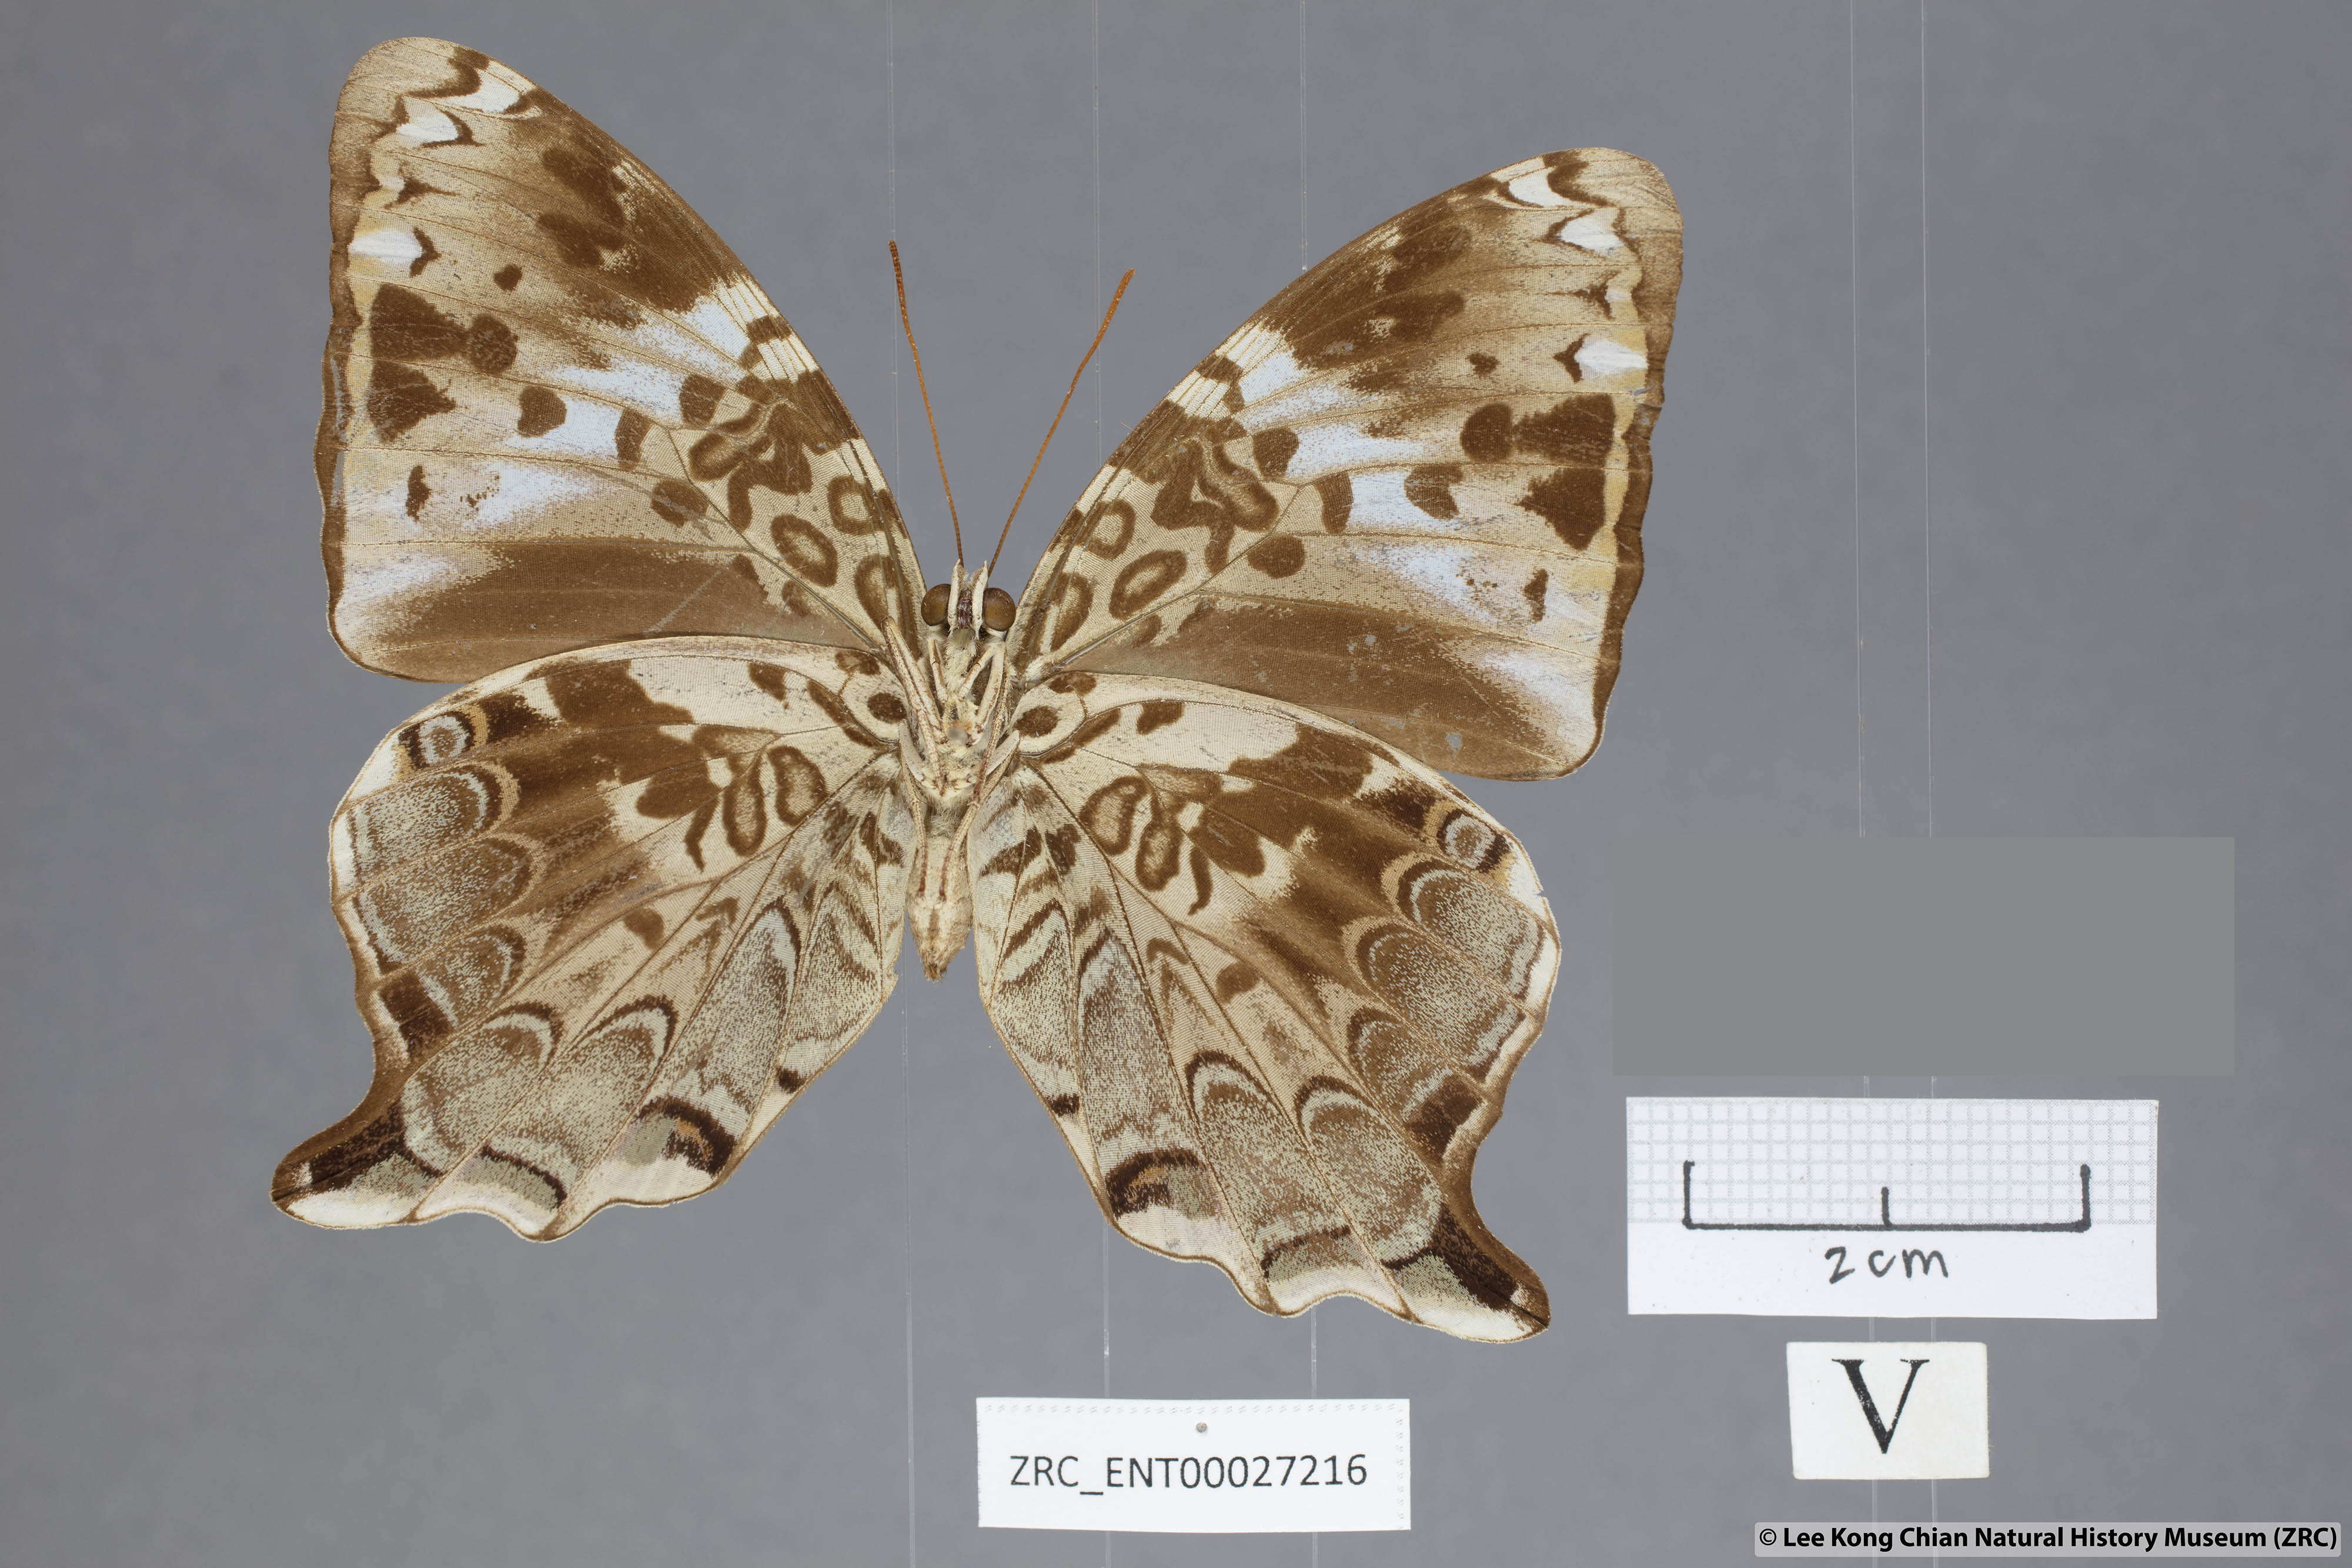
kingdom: Animalia
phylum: Arthropoda
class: Insecta
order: Lepidoptera
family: Nymphalidae
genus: Prothoe
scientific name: Prothoe
